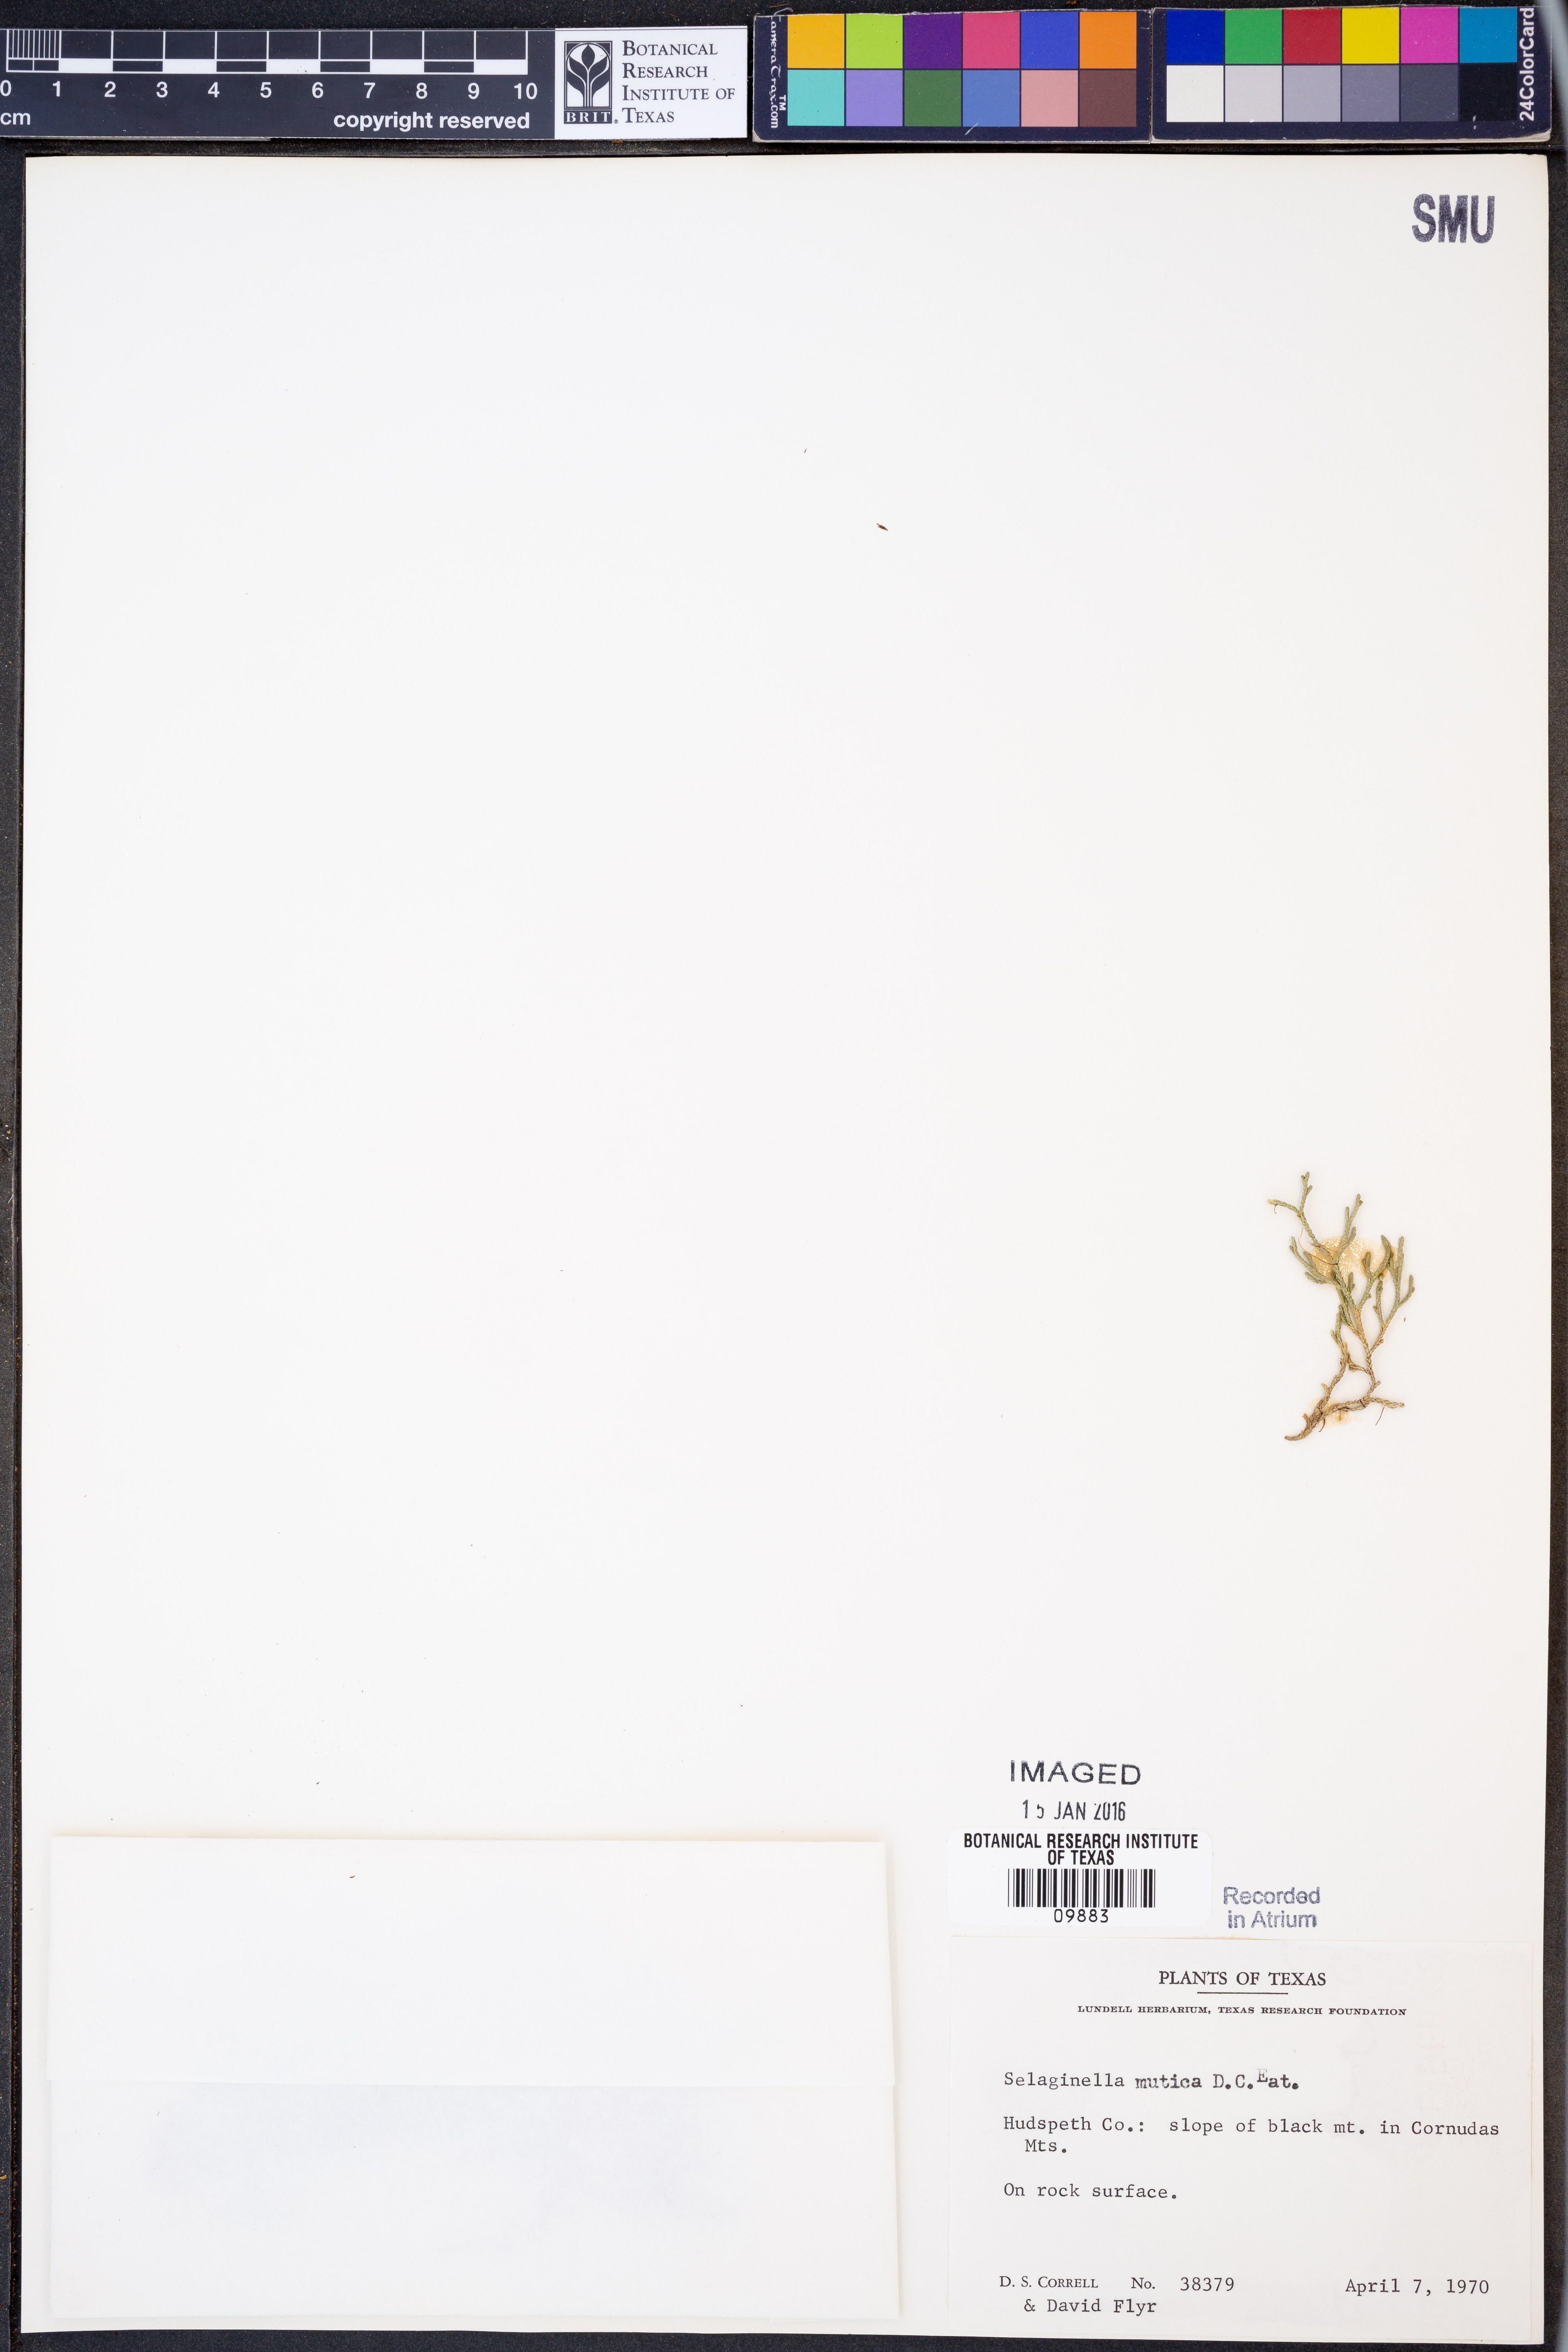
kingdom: Plantae
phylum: Tracheophyta
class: Lycopodiopsida
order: Selaginellales
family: Selaginellaceae
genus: Selaginella
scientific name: Selaginella mutica
